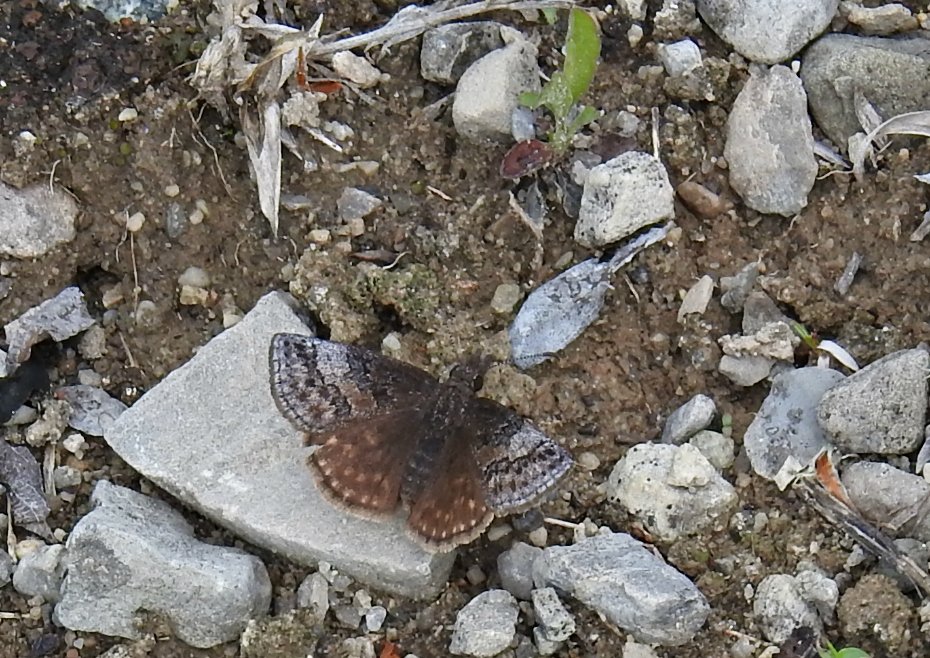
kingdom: Animalia
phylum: Arthropoda
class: Insecta
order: Lepidoptera
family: Hesperiidae
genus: Erynnis
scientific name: Erynnis icelus
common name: Dreamy Duskywing
